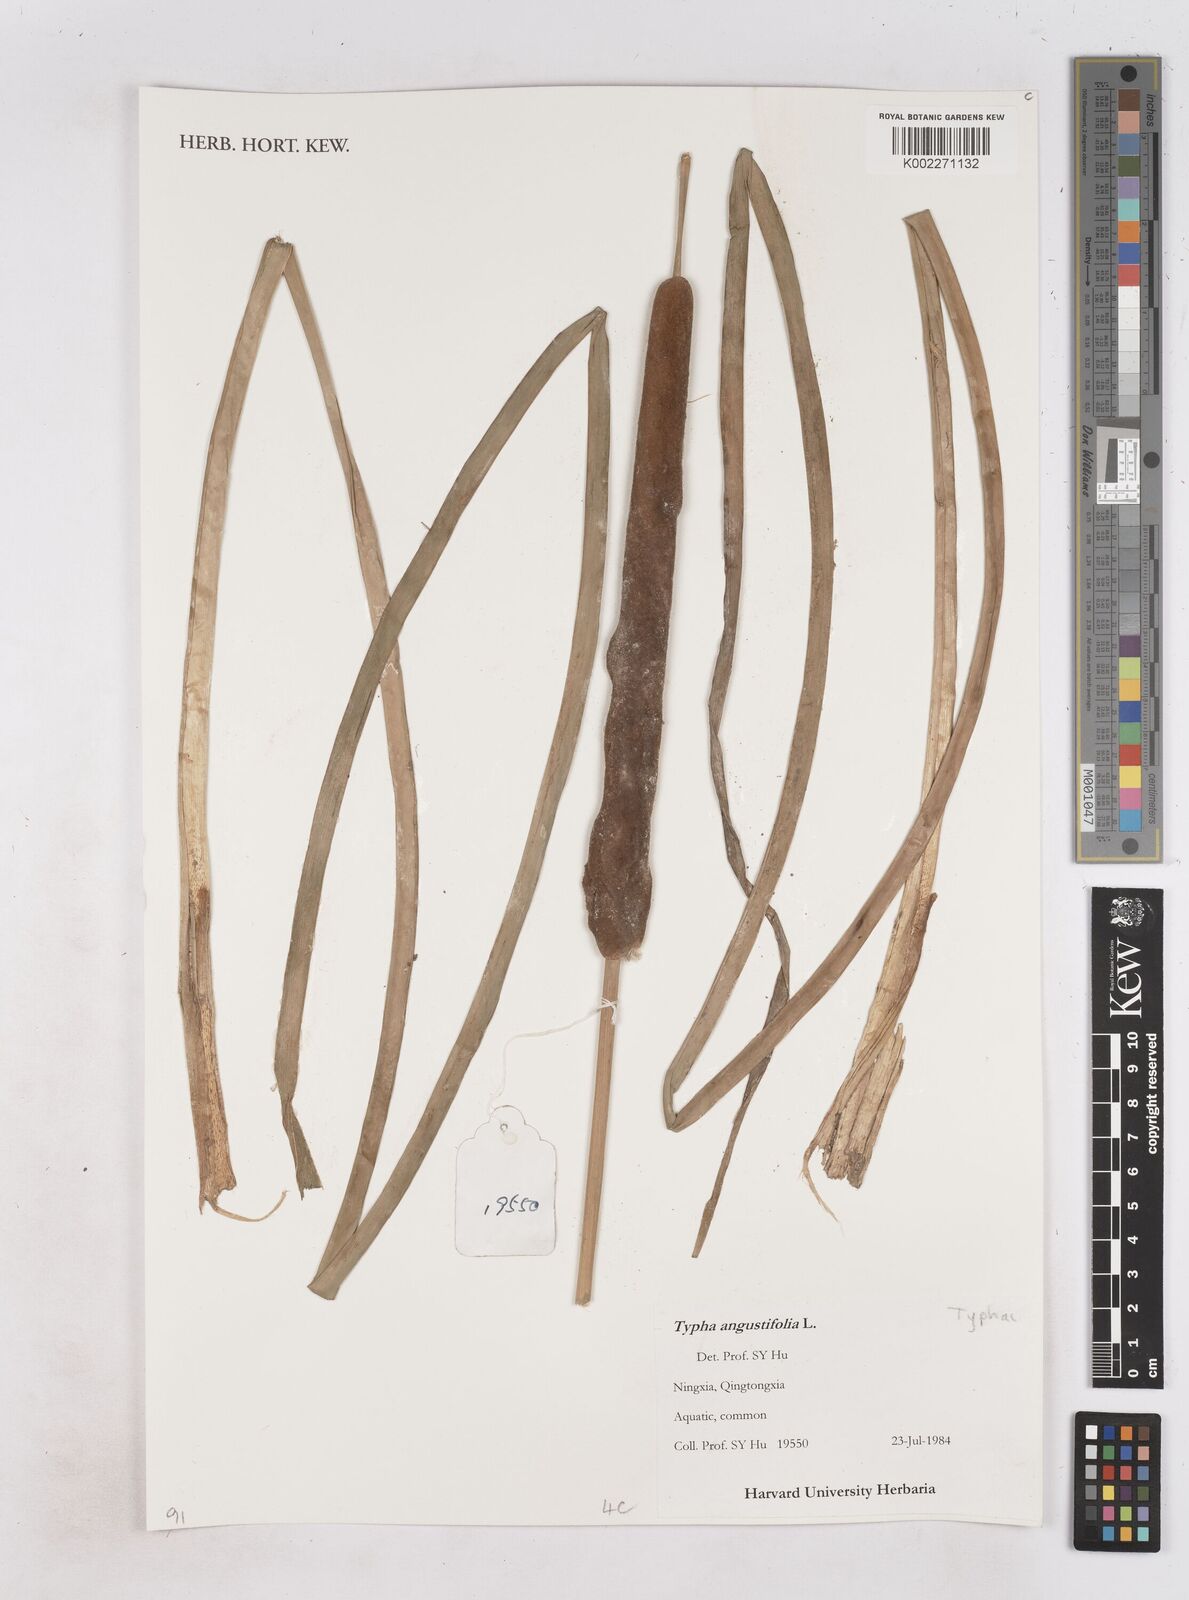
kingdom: Plantae
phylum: Tracheophyta
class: Liliopsida
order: Poales
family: Typhaceae
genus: Typha
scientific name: Typha domingensis
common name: Southern cattail
